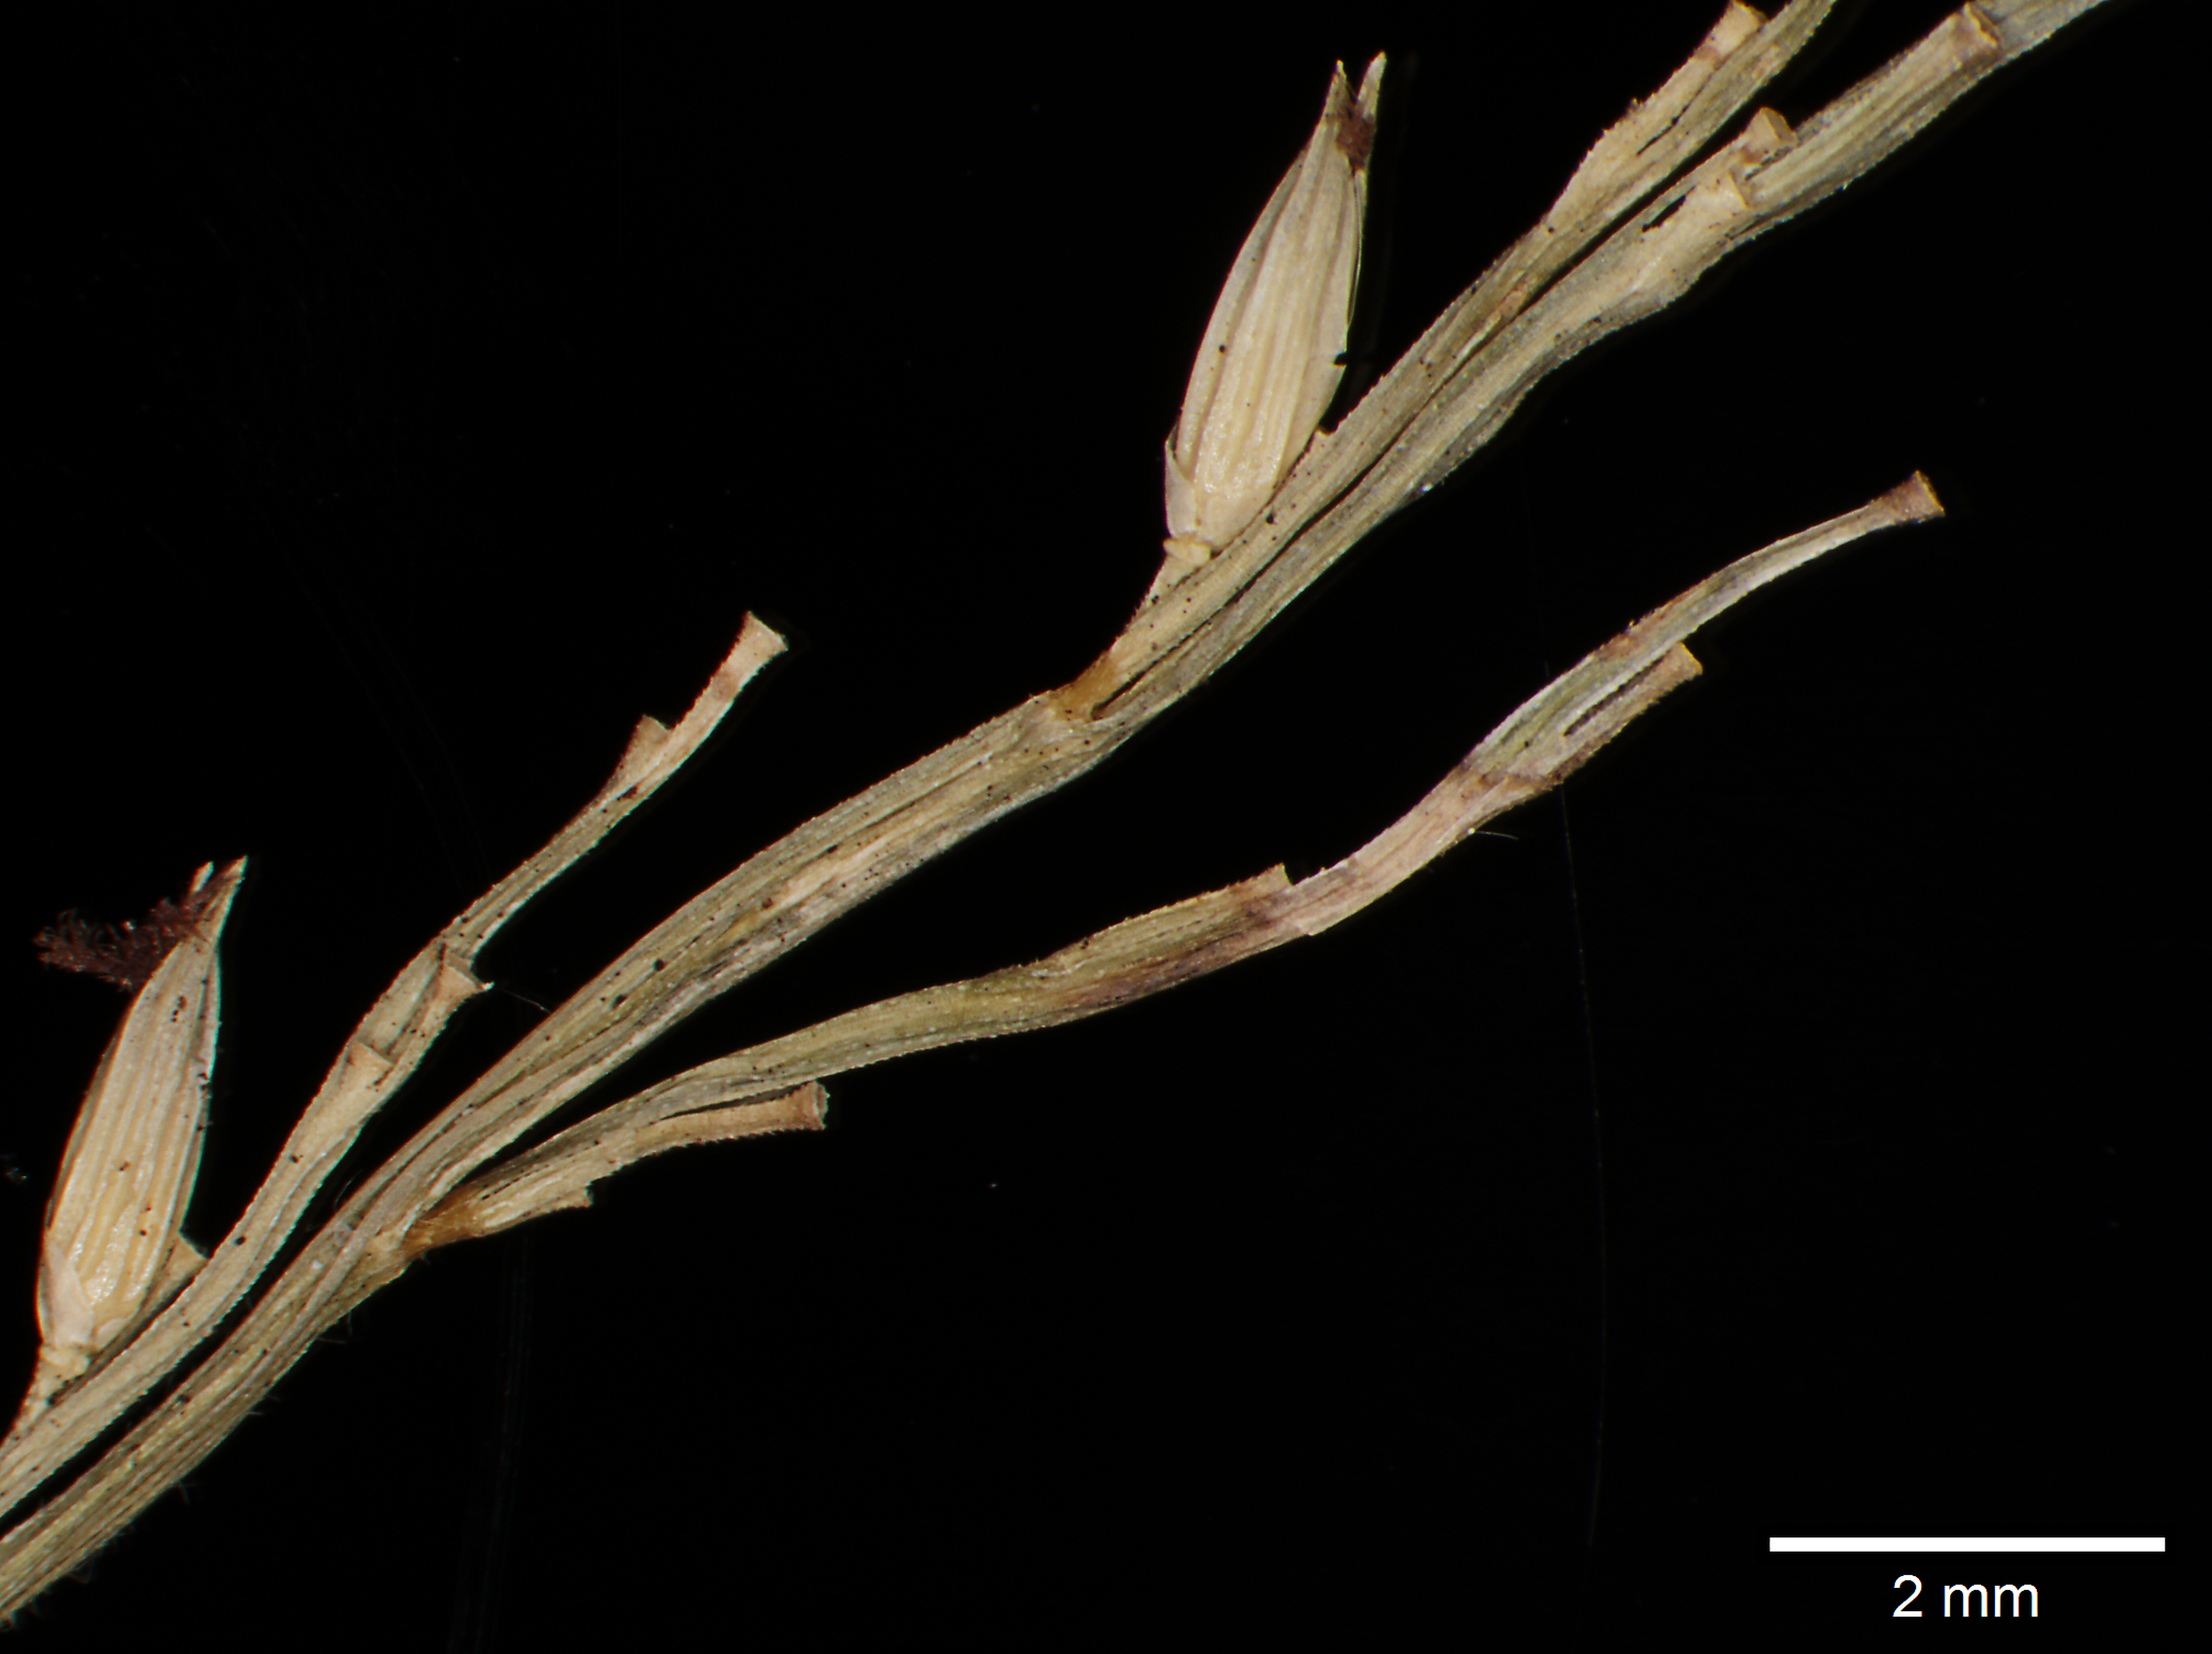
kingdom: Plantae
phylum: Tracheophyta
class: Liliopsida
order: Poales
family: Poaceae
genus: Oedochloa
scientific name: Oedochloa mayarensis
